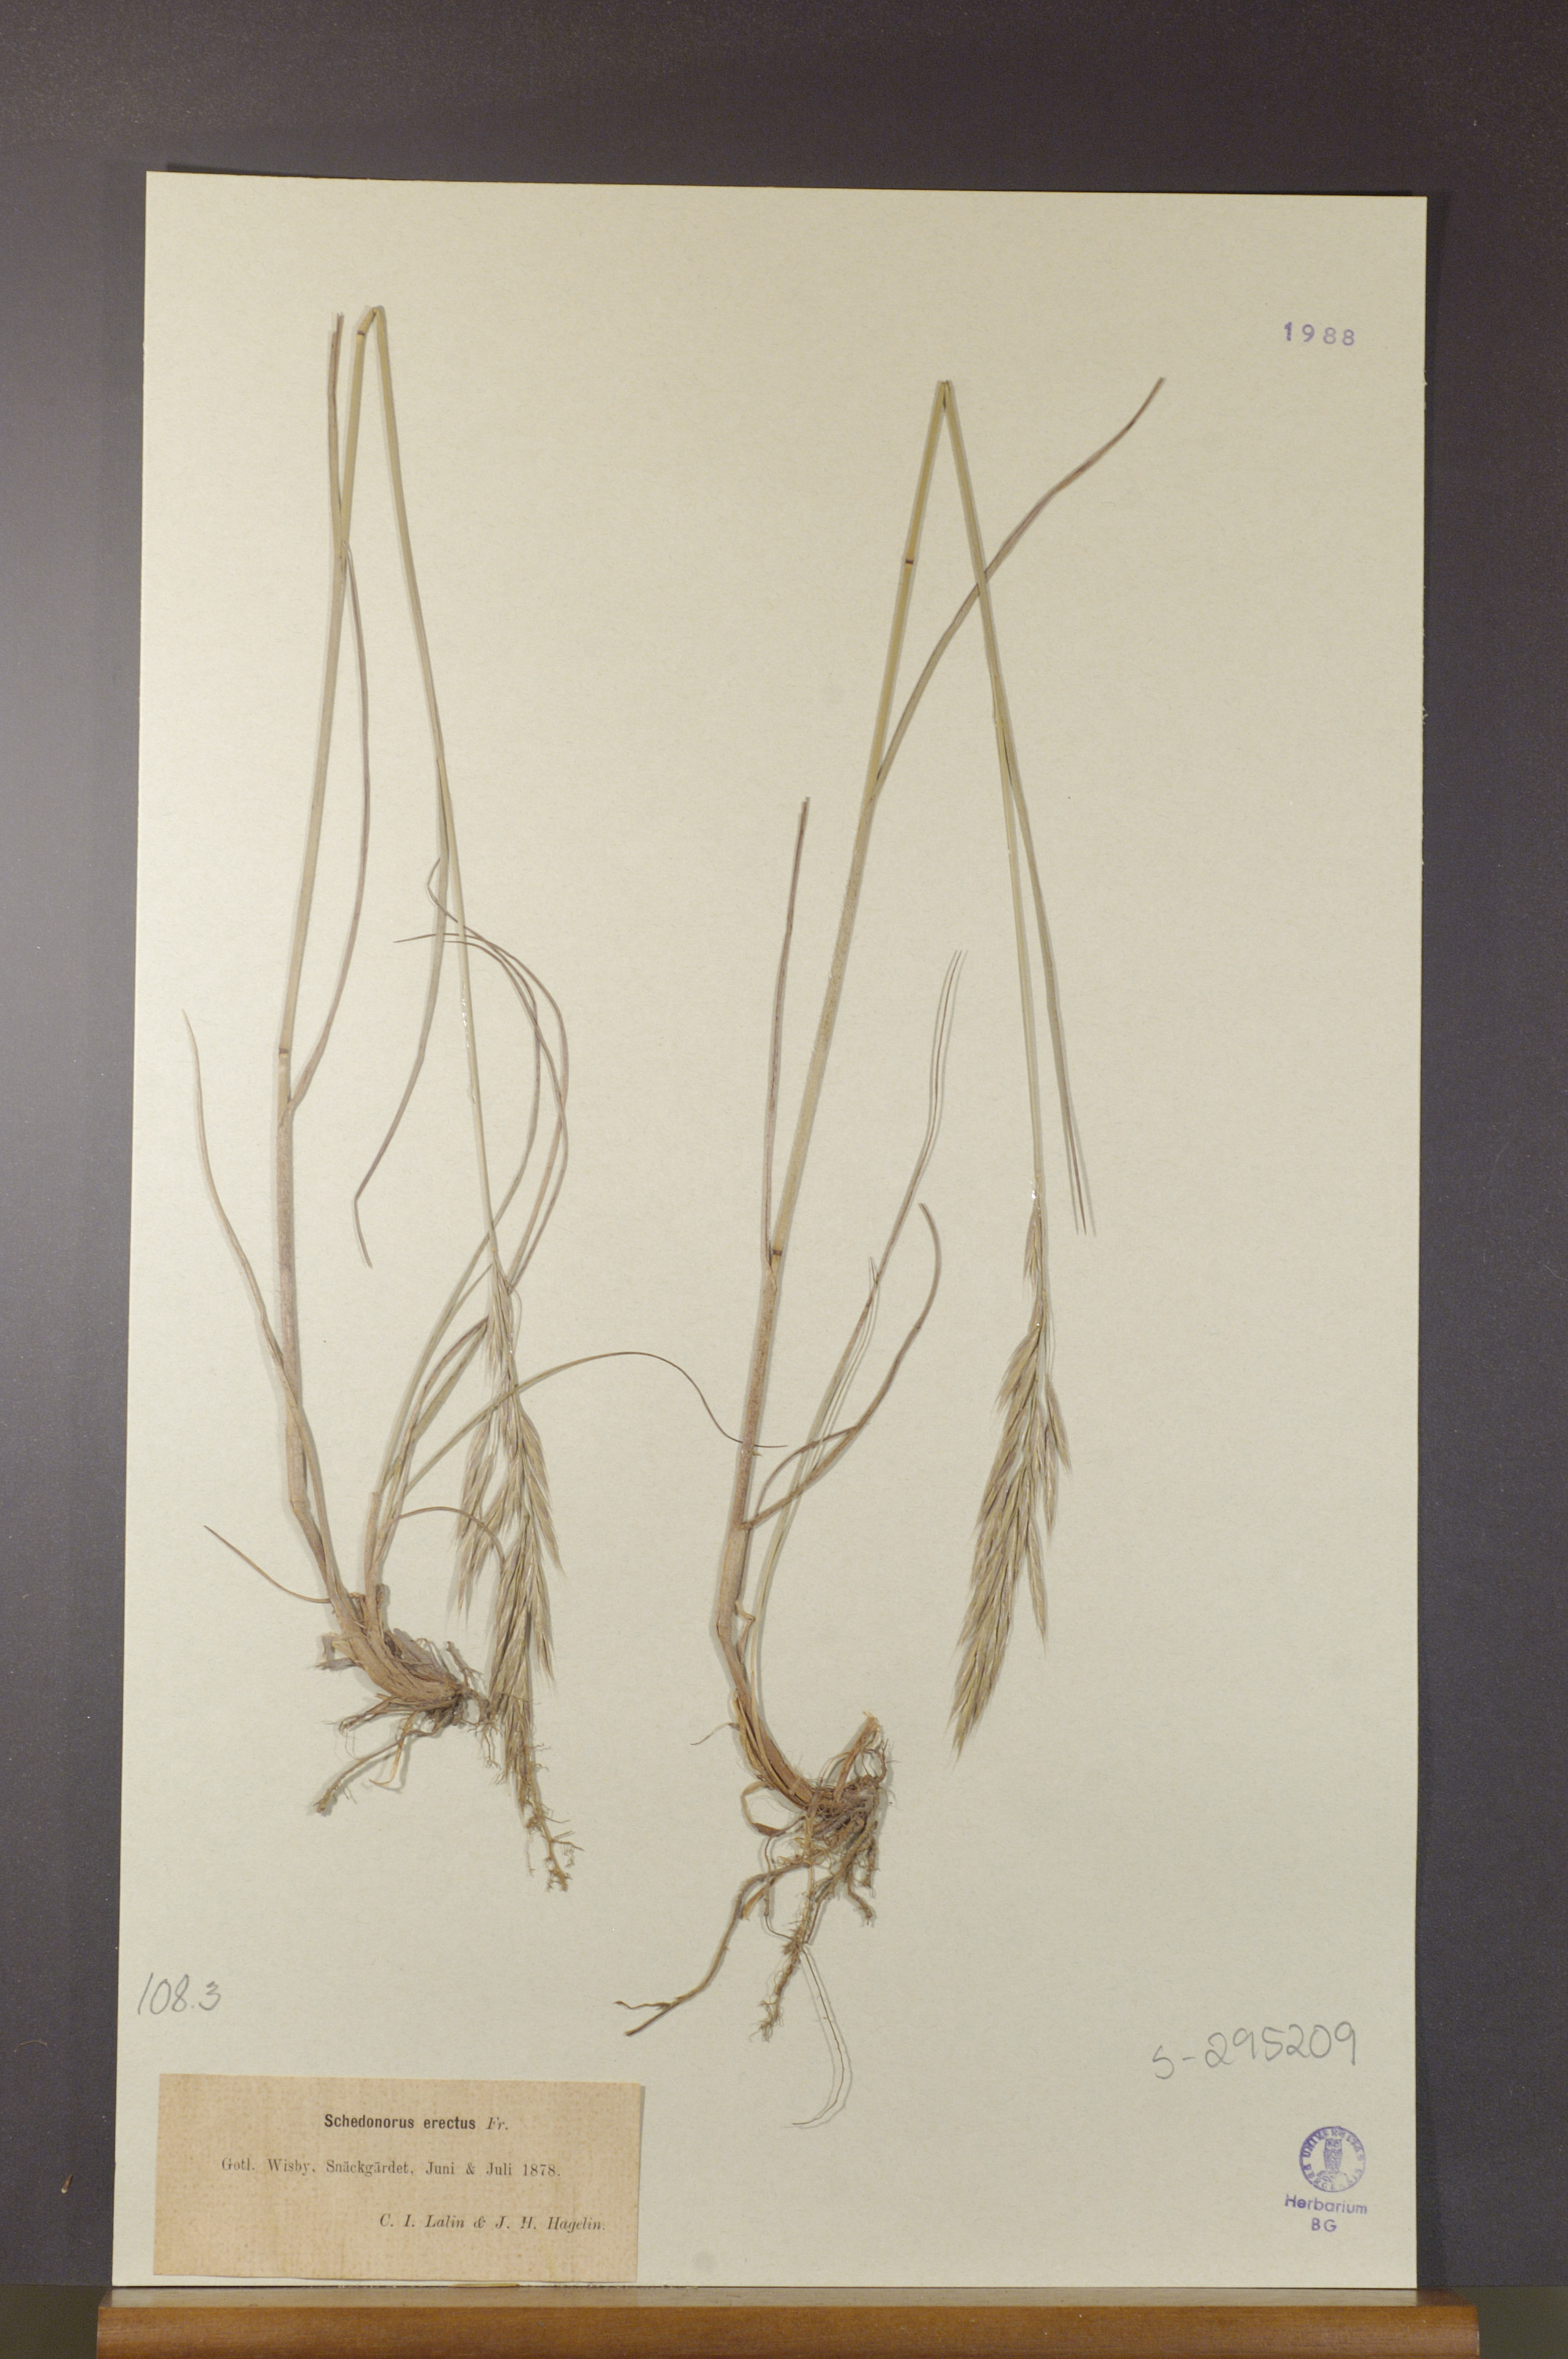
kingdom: Plantae
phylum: Tracheophyta
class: Liliopsida
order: Poales
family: Poaceae
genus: Bromus
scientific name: Bromus erectus
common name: Erect brome
